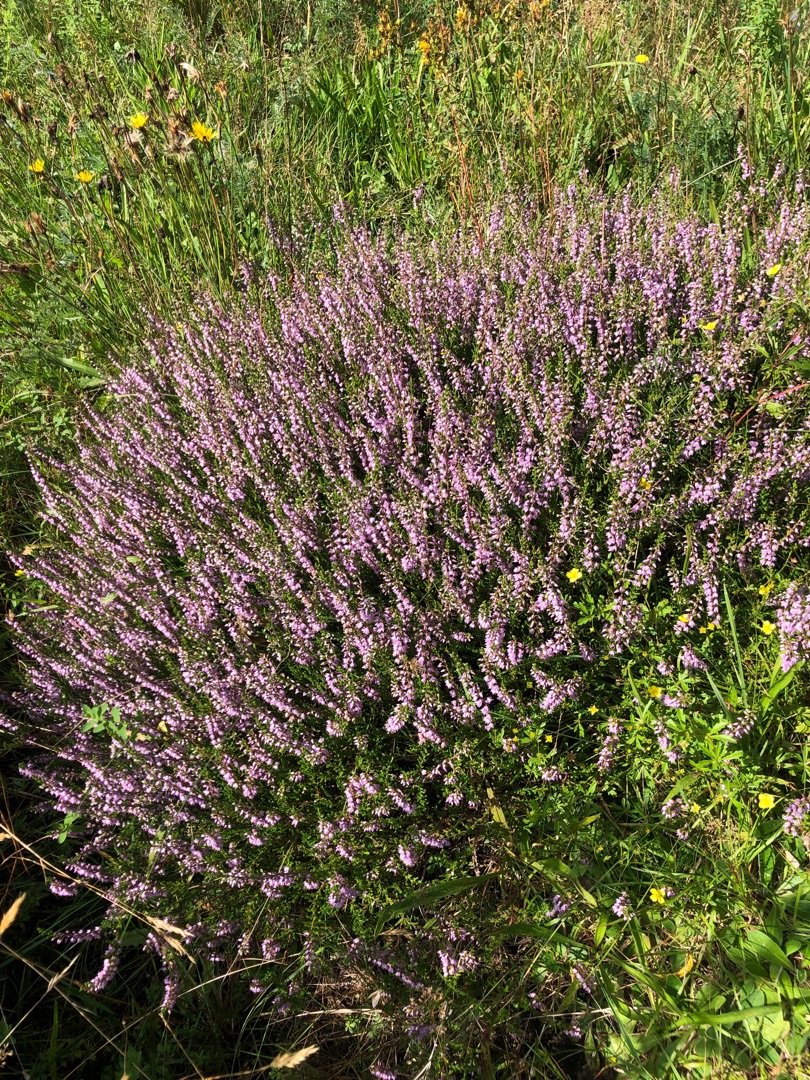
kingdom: Plantae
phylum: Tracheophyta
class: Magnoliopsida
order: Ericales
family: Ericaceae
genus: Calluna
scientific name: Calluna vulgaris
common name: Hedelyng
